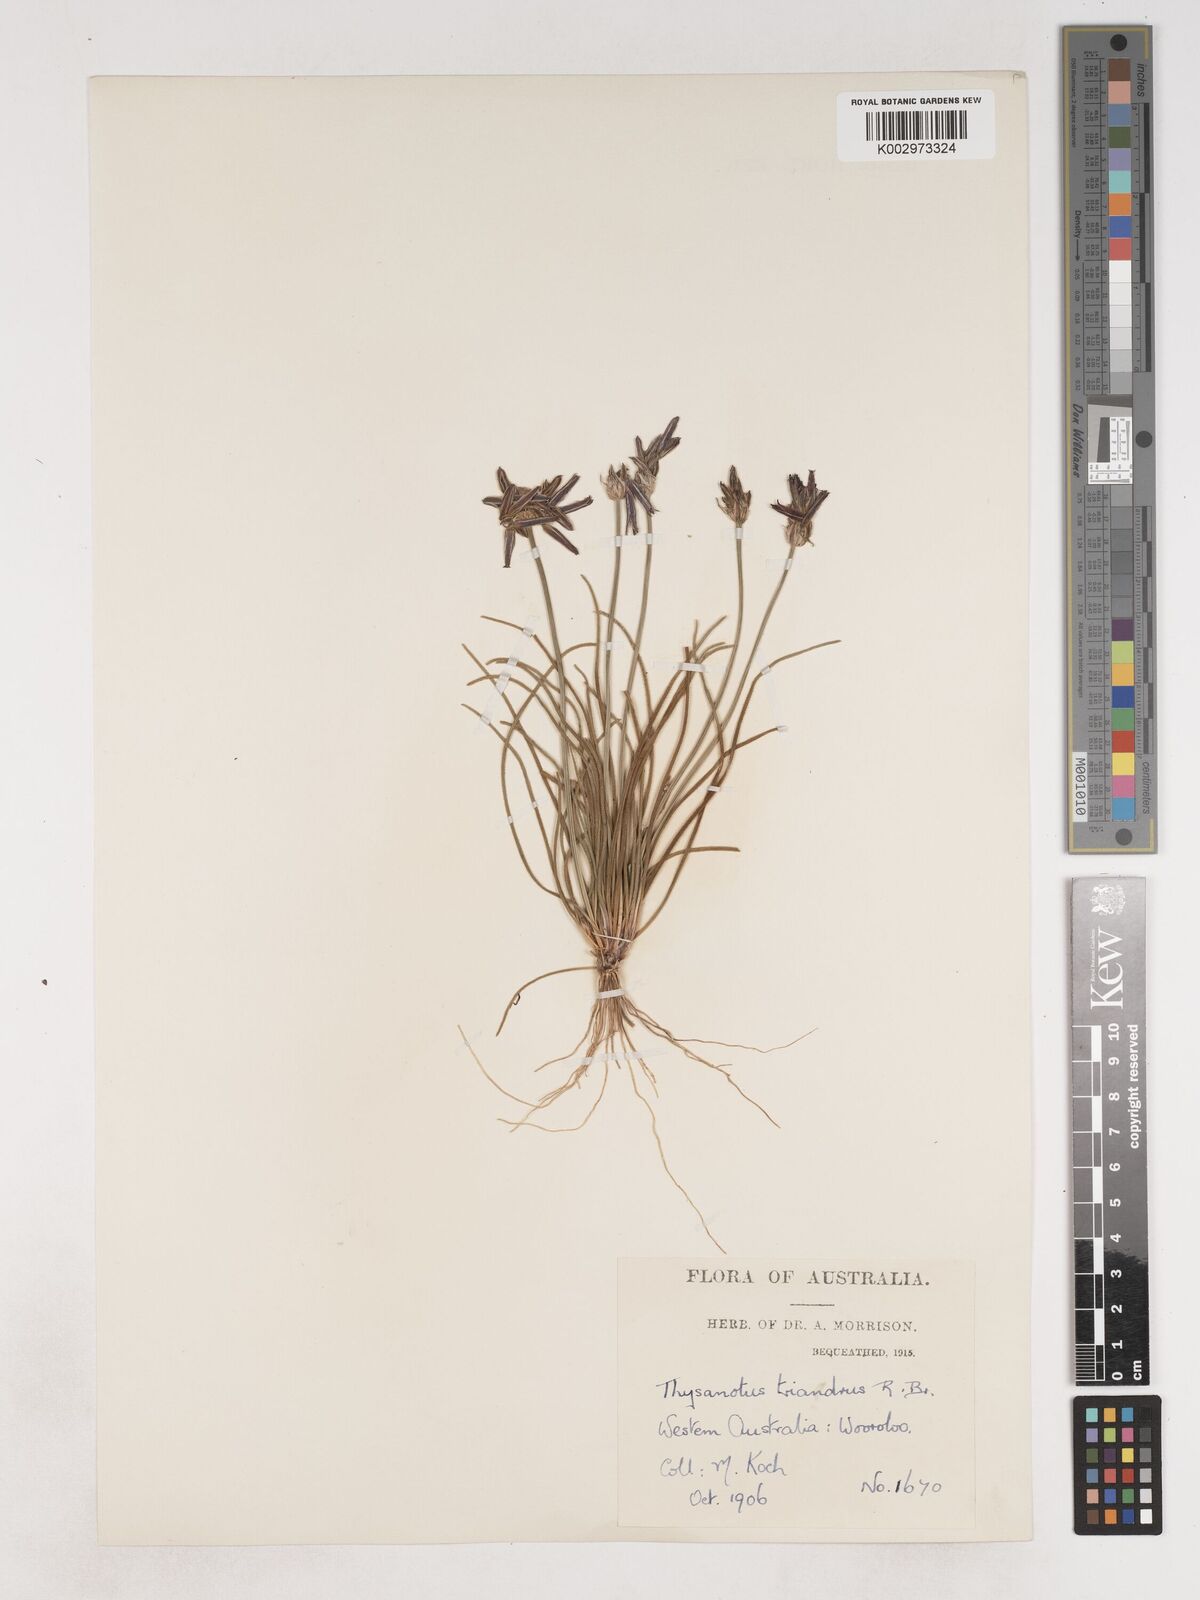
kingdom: Plantae
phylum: Tracheophyta
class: Liliopsida
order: Asparagales
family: Asparagaceae
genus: Thysanotus
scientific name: Thysanotus triandrus
